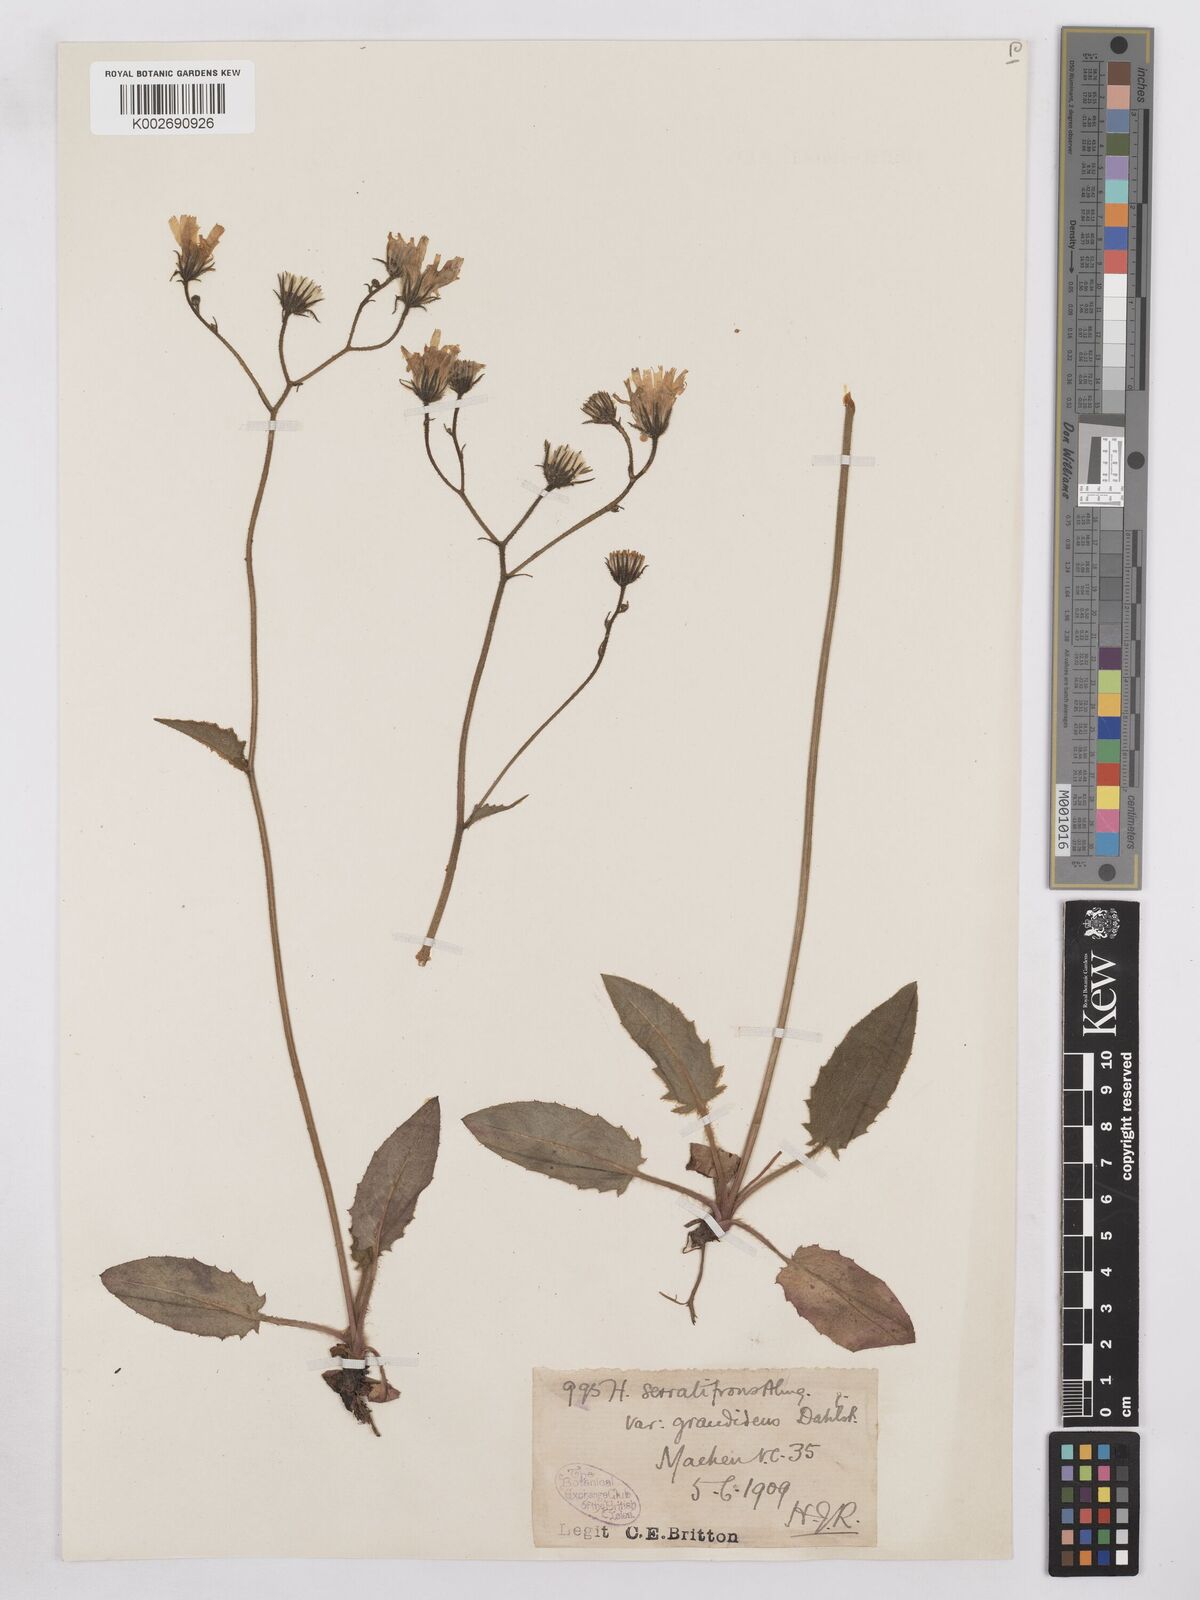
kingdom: Plantae
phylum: Tracheophyta
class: Magnoliopsida
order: Asterales
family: Asteraceae
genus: Hieracium
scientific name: Hieracium murorum
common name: Wall hawkweed
